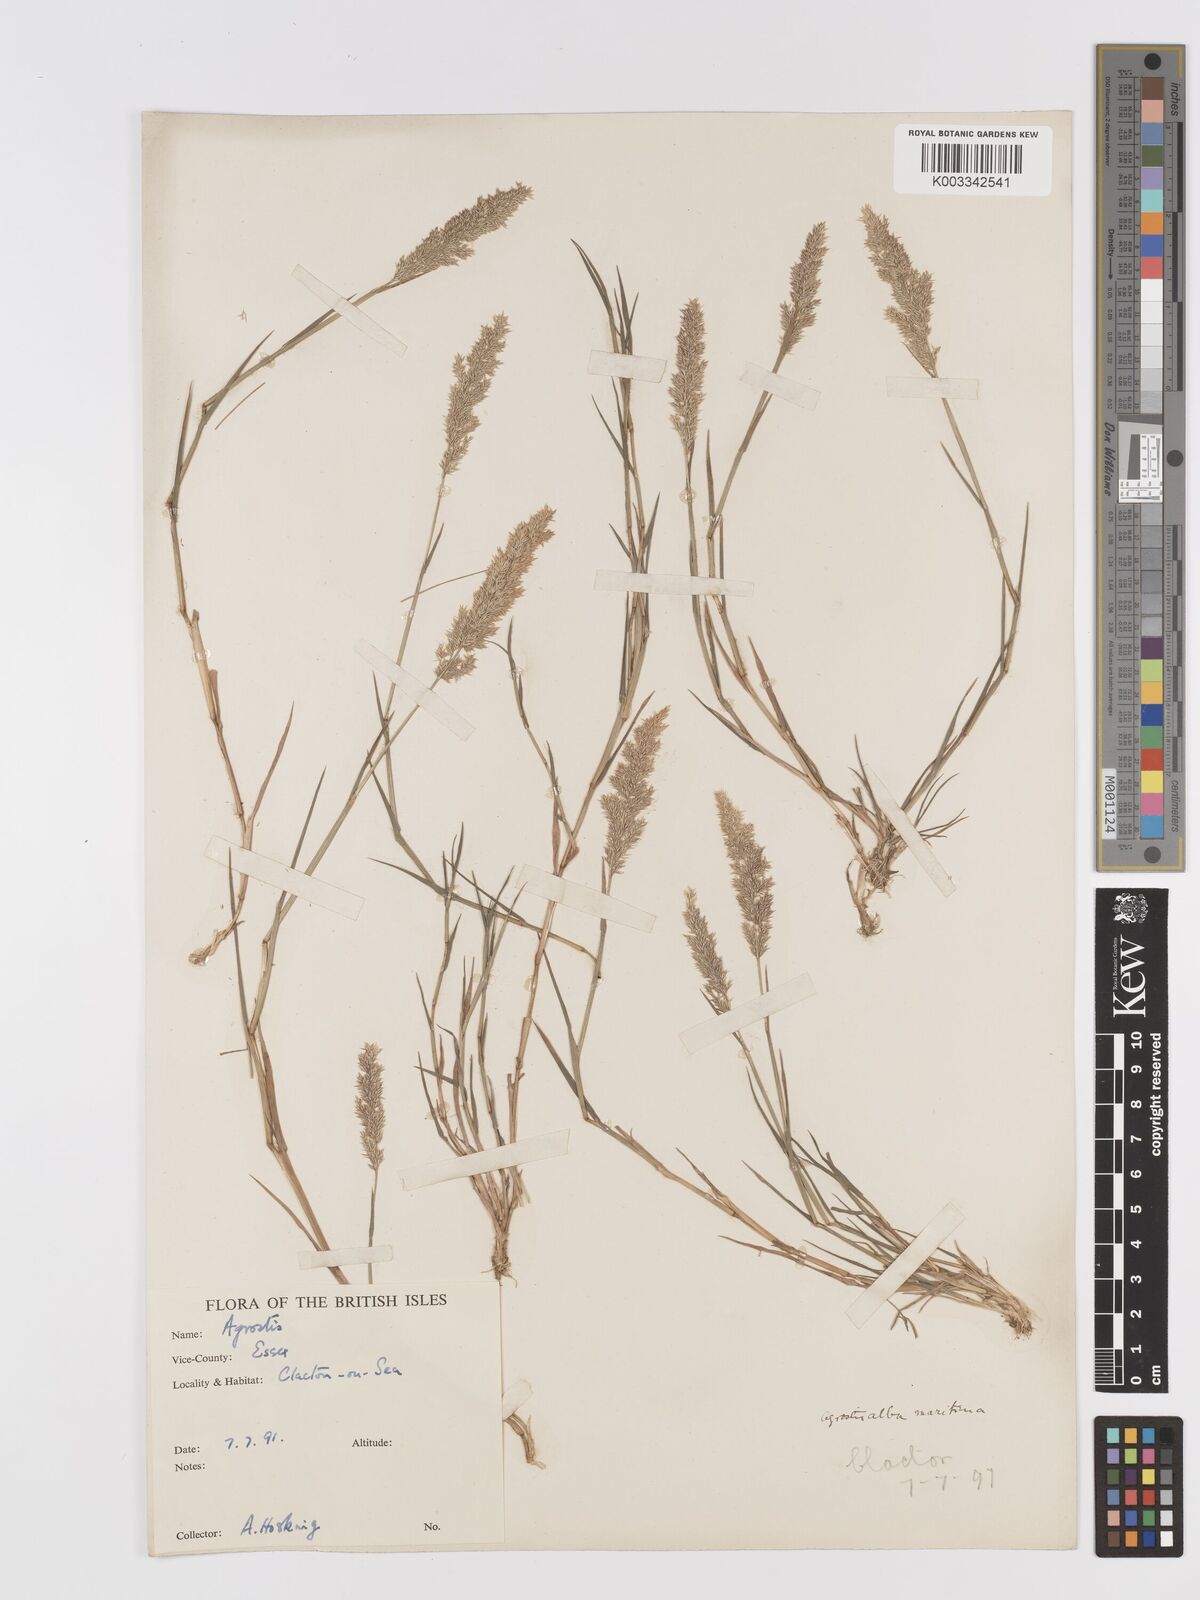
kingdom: Plantae
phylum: Tracheophyta
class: Liliopsida
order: Poales
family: Poaceae
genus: Agrostis
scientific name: Agrostis
